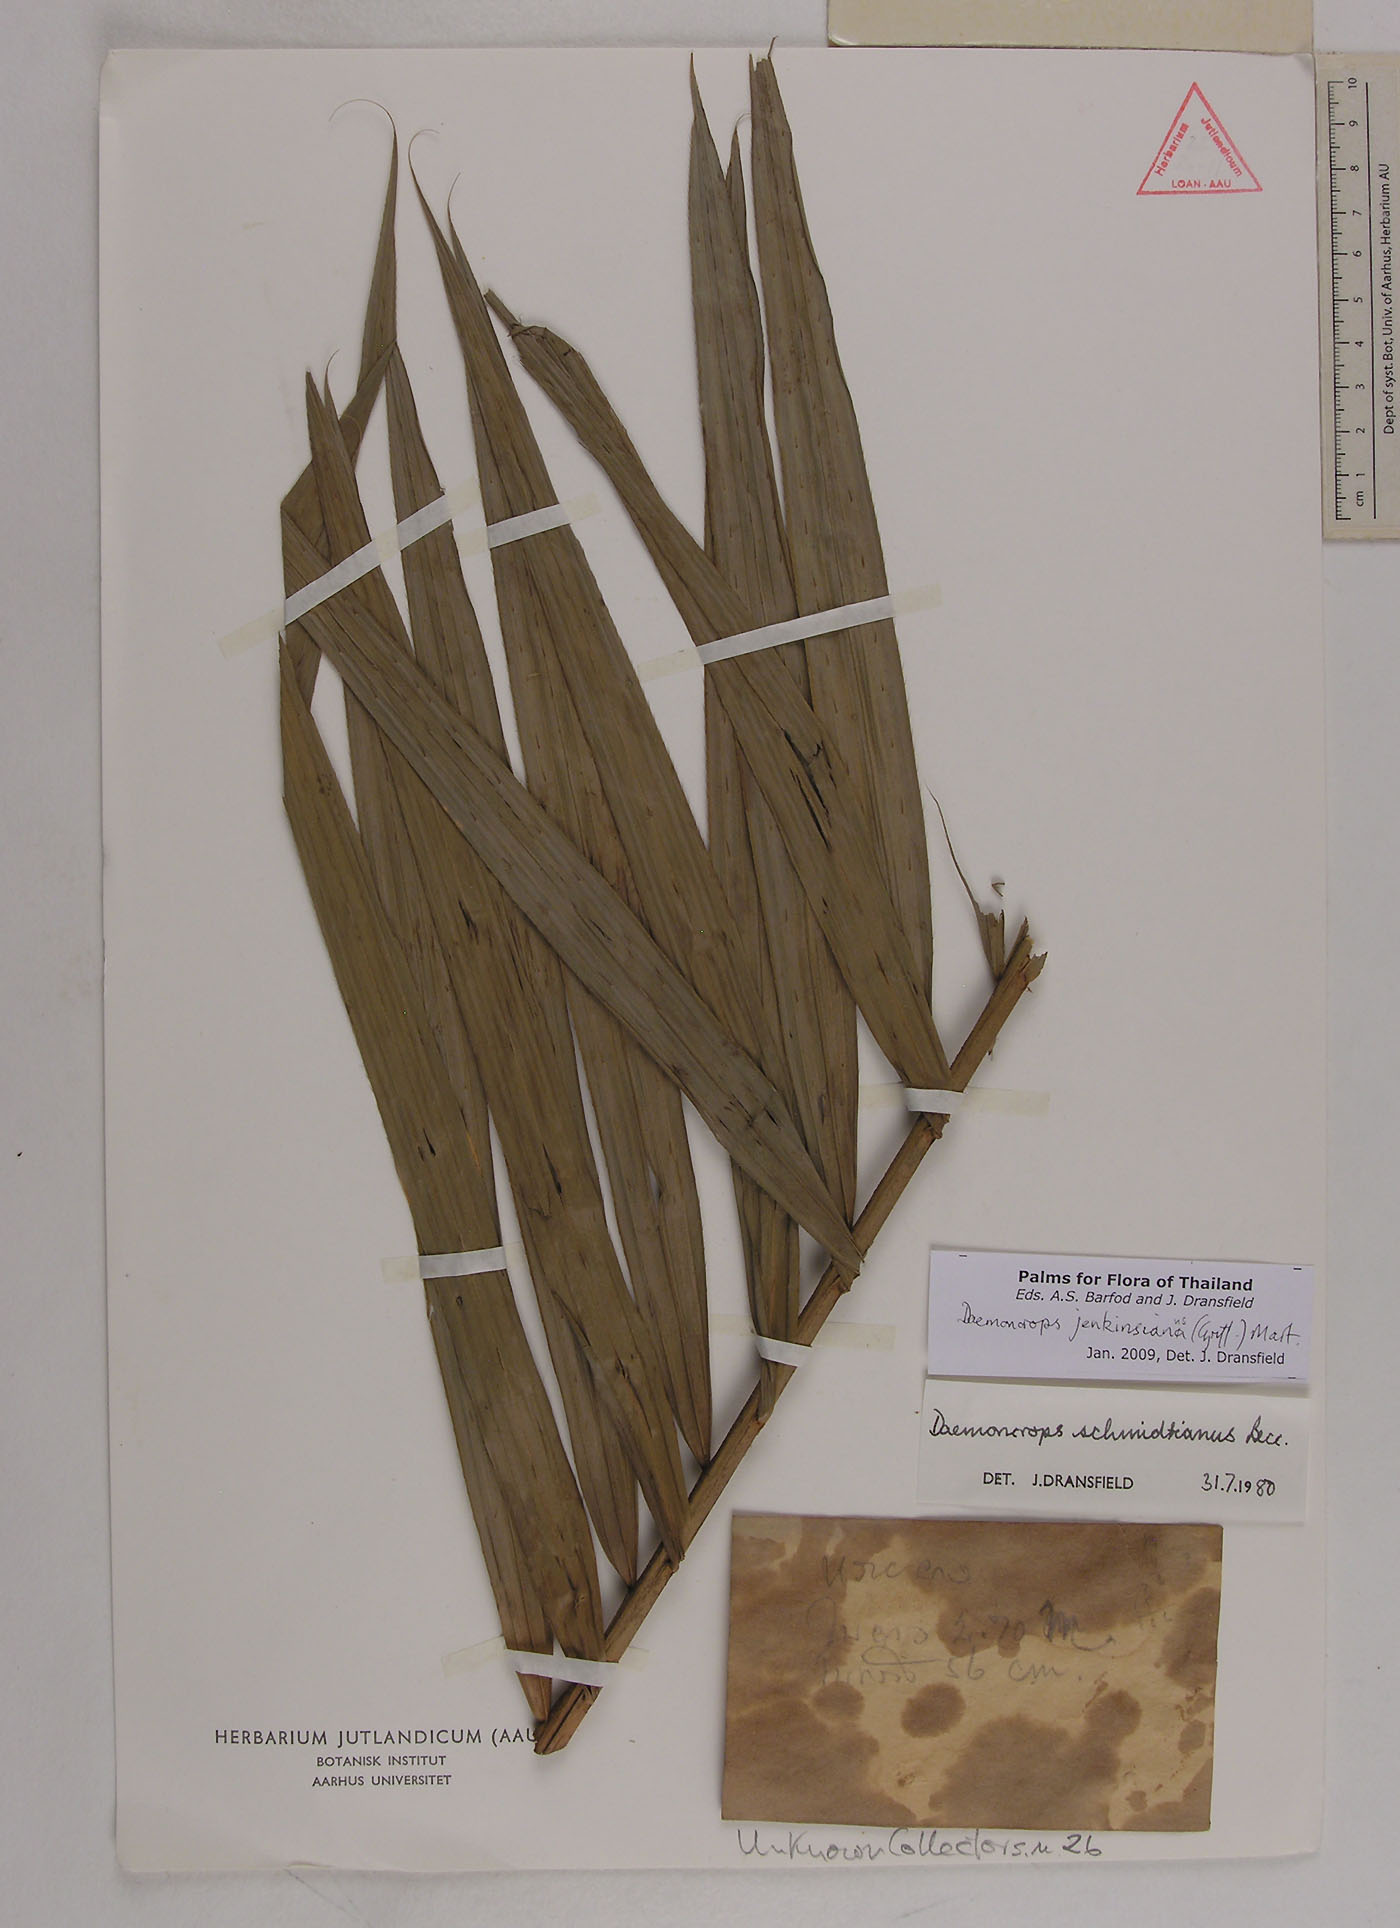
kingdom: Plantae
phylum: Tracheophyta
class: Liliopsida
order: Arecales
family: Arecaceae
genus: Calamus
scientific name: Calamus melanochaetes
